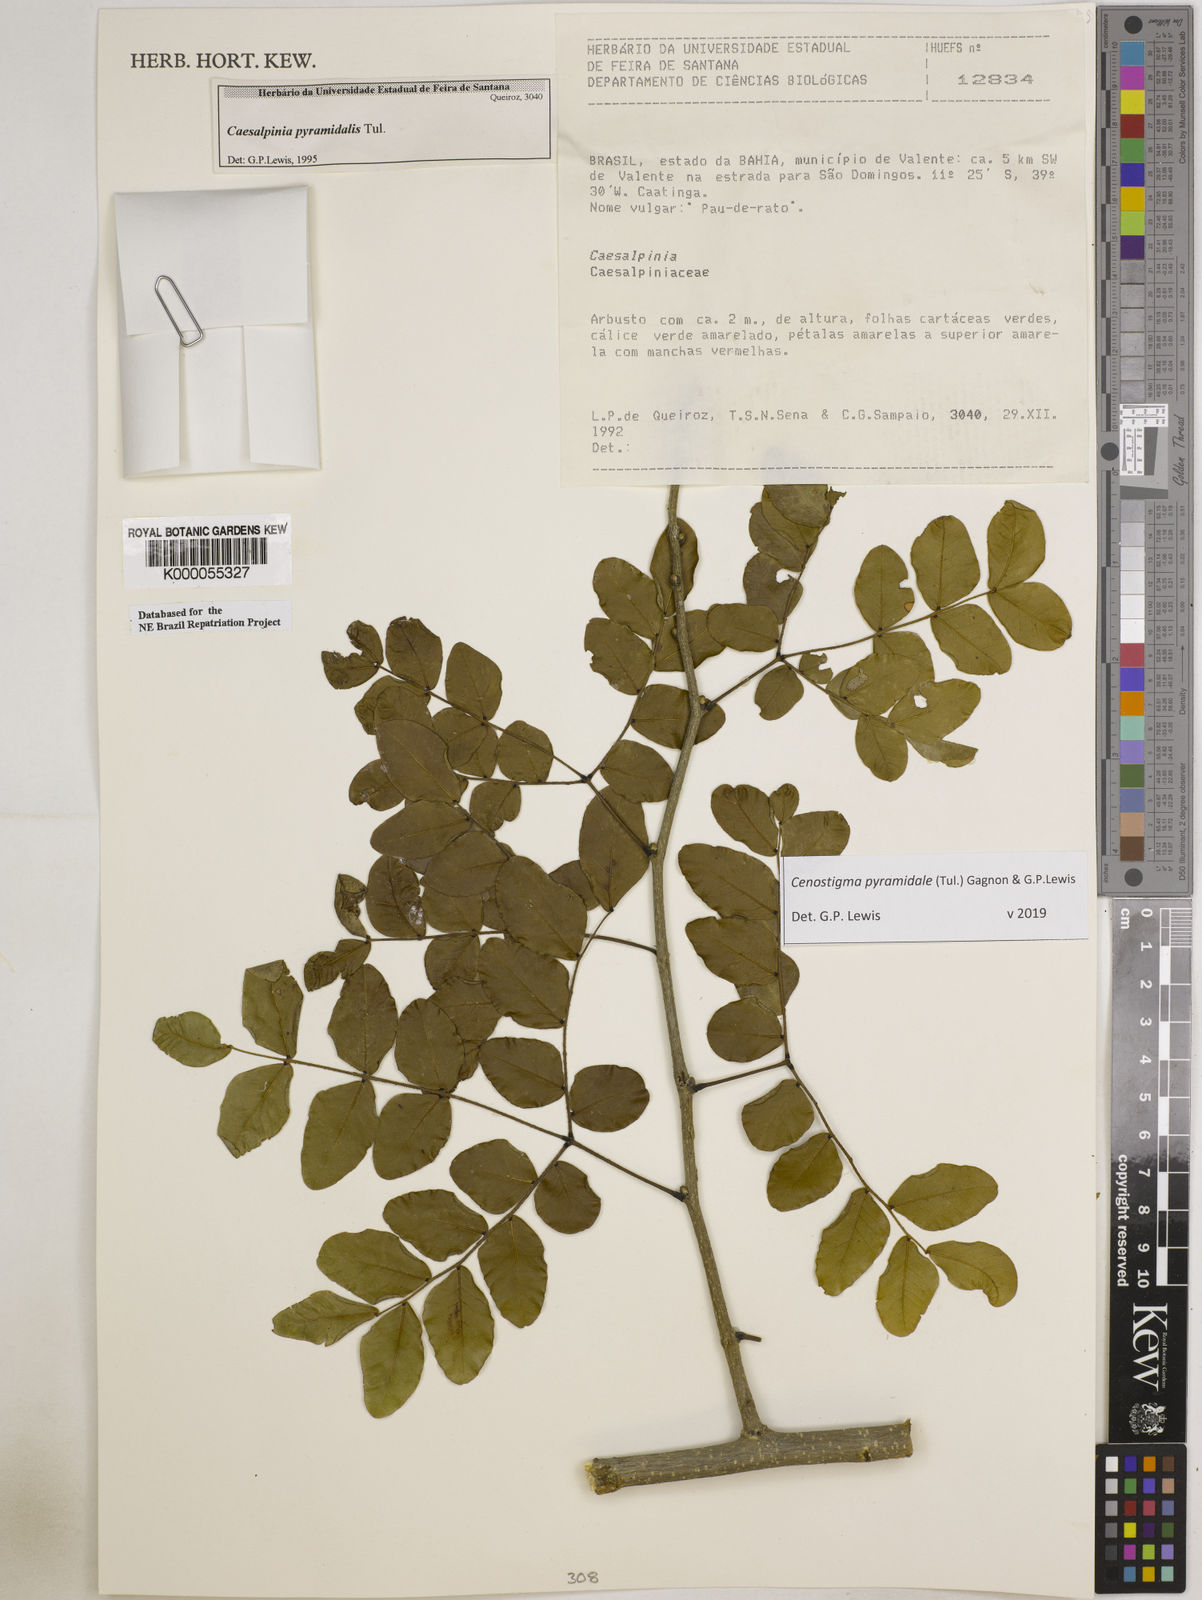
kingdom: Plantae
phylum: Tracheophyta
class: Magnoliopsida
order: Fabales
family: Fabaceae
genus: Cenostigma
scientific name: Cenostigma pyramidale
